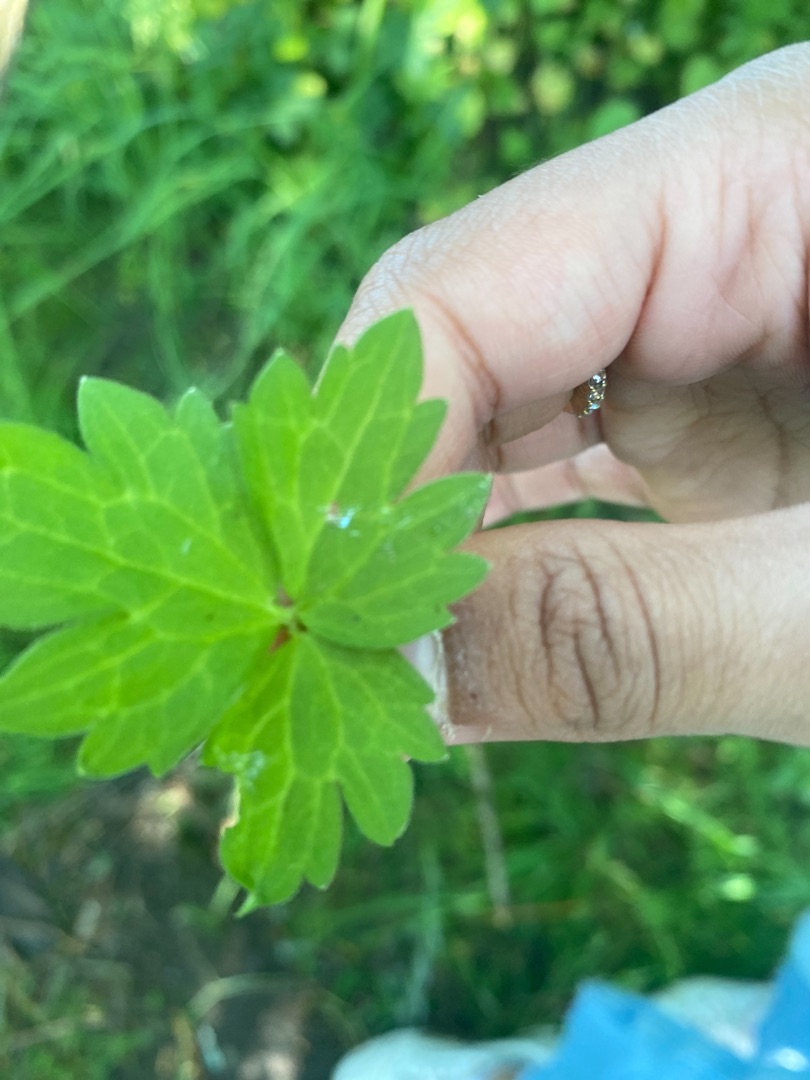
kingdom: Plantae
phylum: Tracheophyta
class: Magnoliopsida
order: Ranunculales
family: Ranunculaceae
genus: Ranunculus
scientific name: Ranunculus repens
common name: Lav ranunkel
